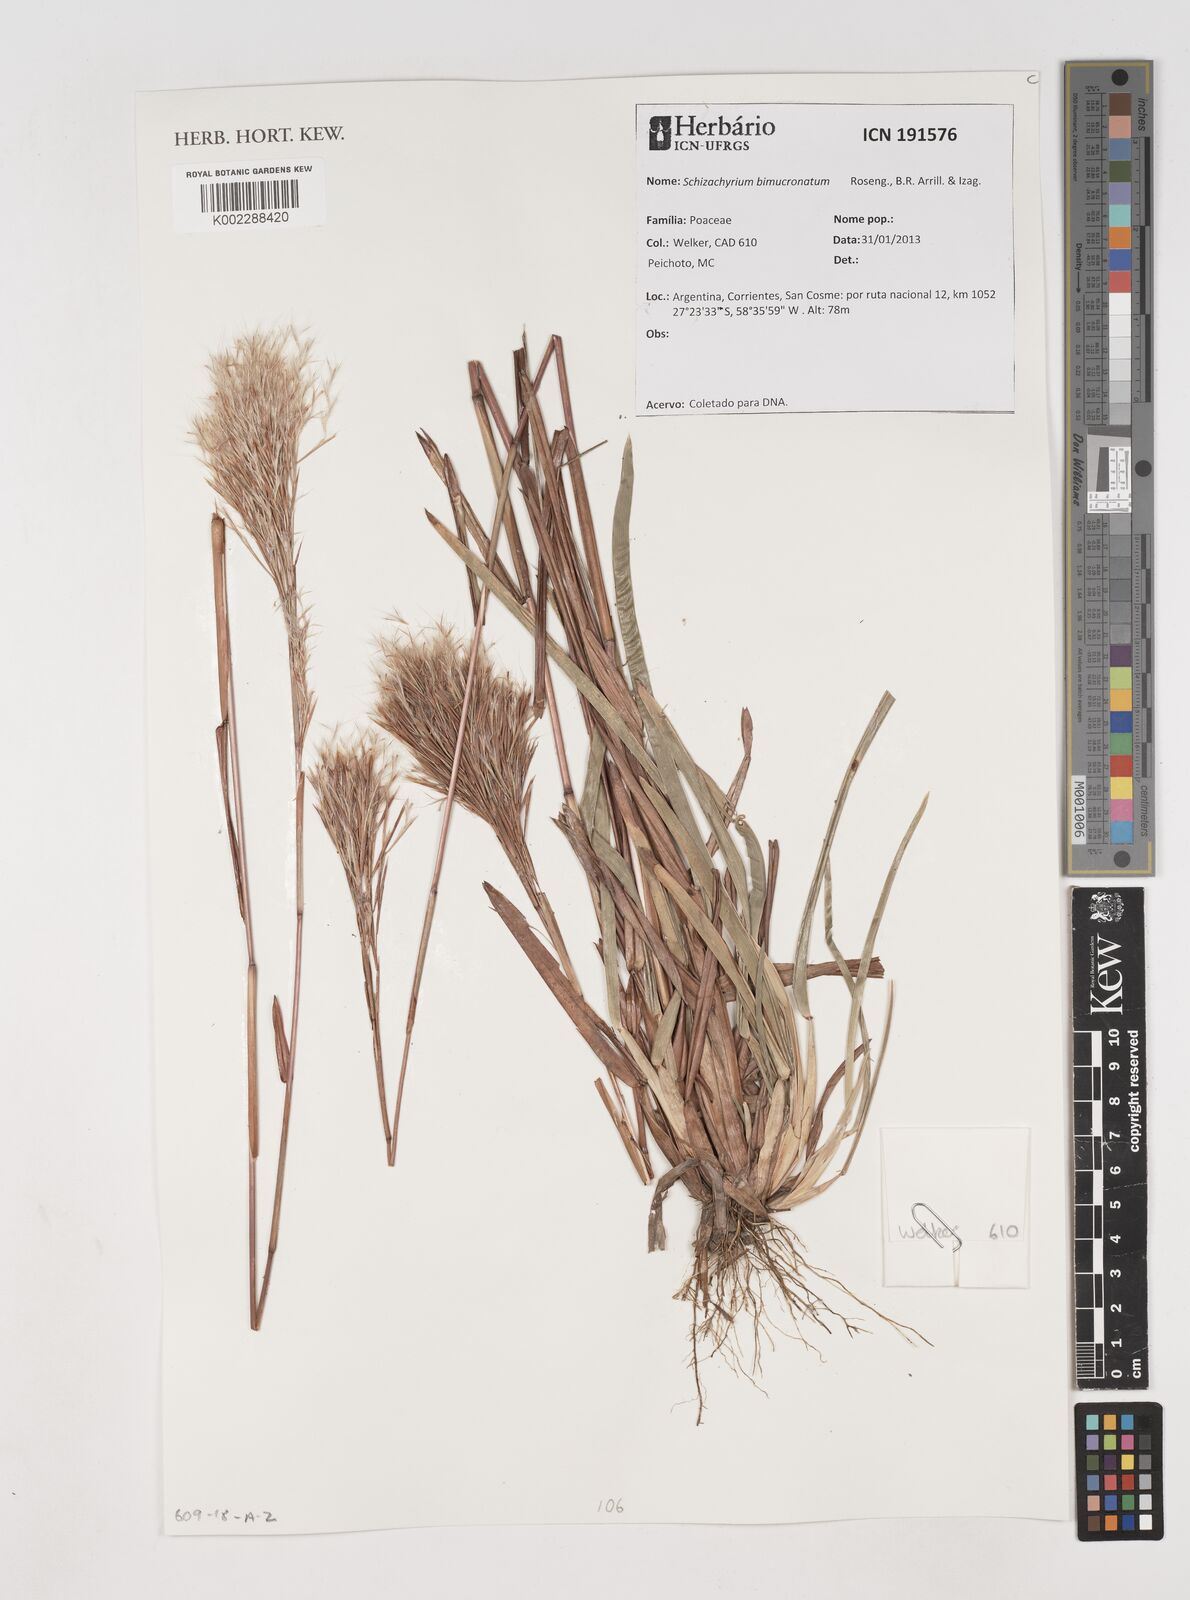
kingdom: Plantae
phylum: Tracheophyta
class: Liliopsida
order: Poales
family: Poaceae
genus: Schizachyrium
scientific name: Schizachyrium condensatum
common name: Bush beardgrass
